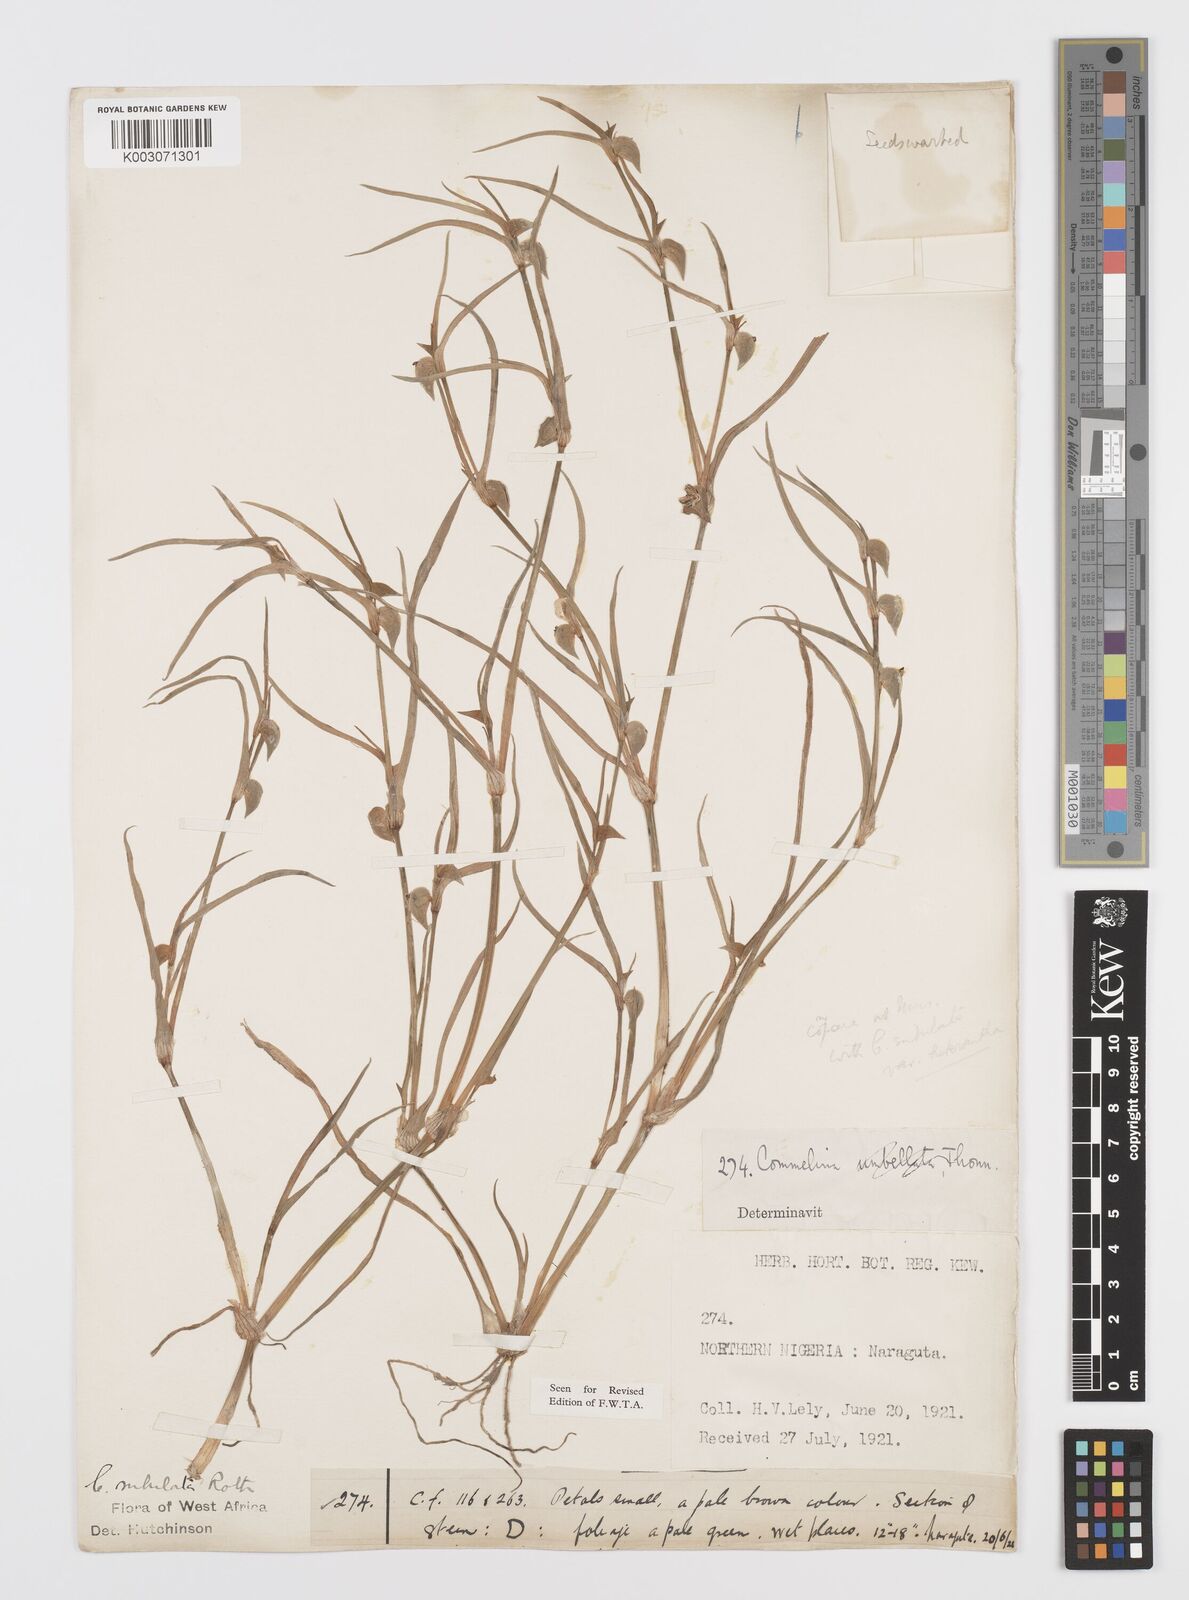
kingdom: Plantae
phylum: Tracheophyta
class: Liliopsida
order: Commelinales
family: Commelinaceae
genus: Commelina
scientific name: Commelina subulata
